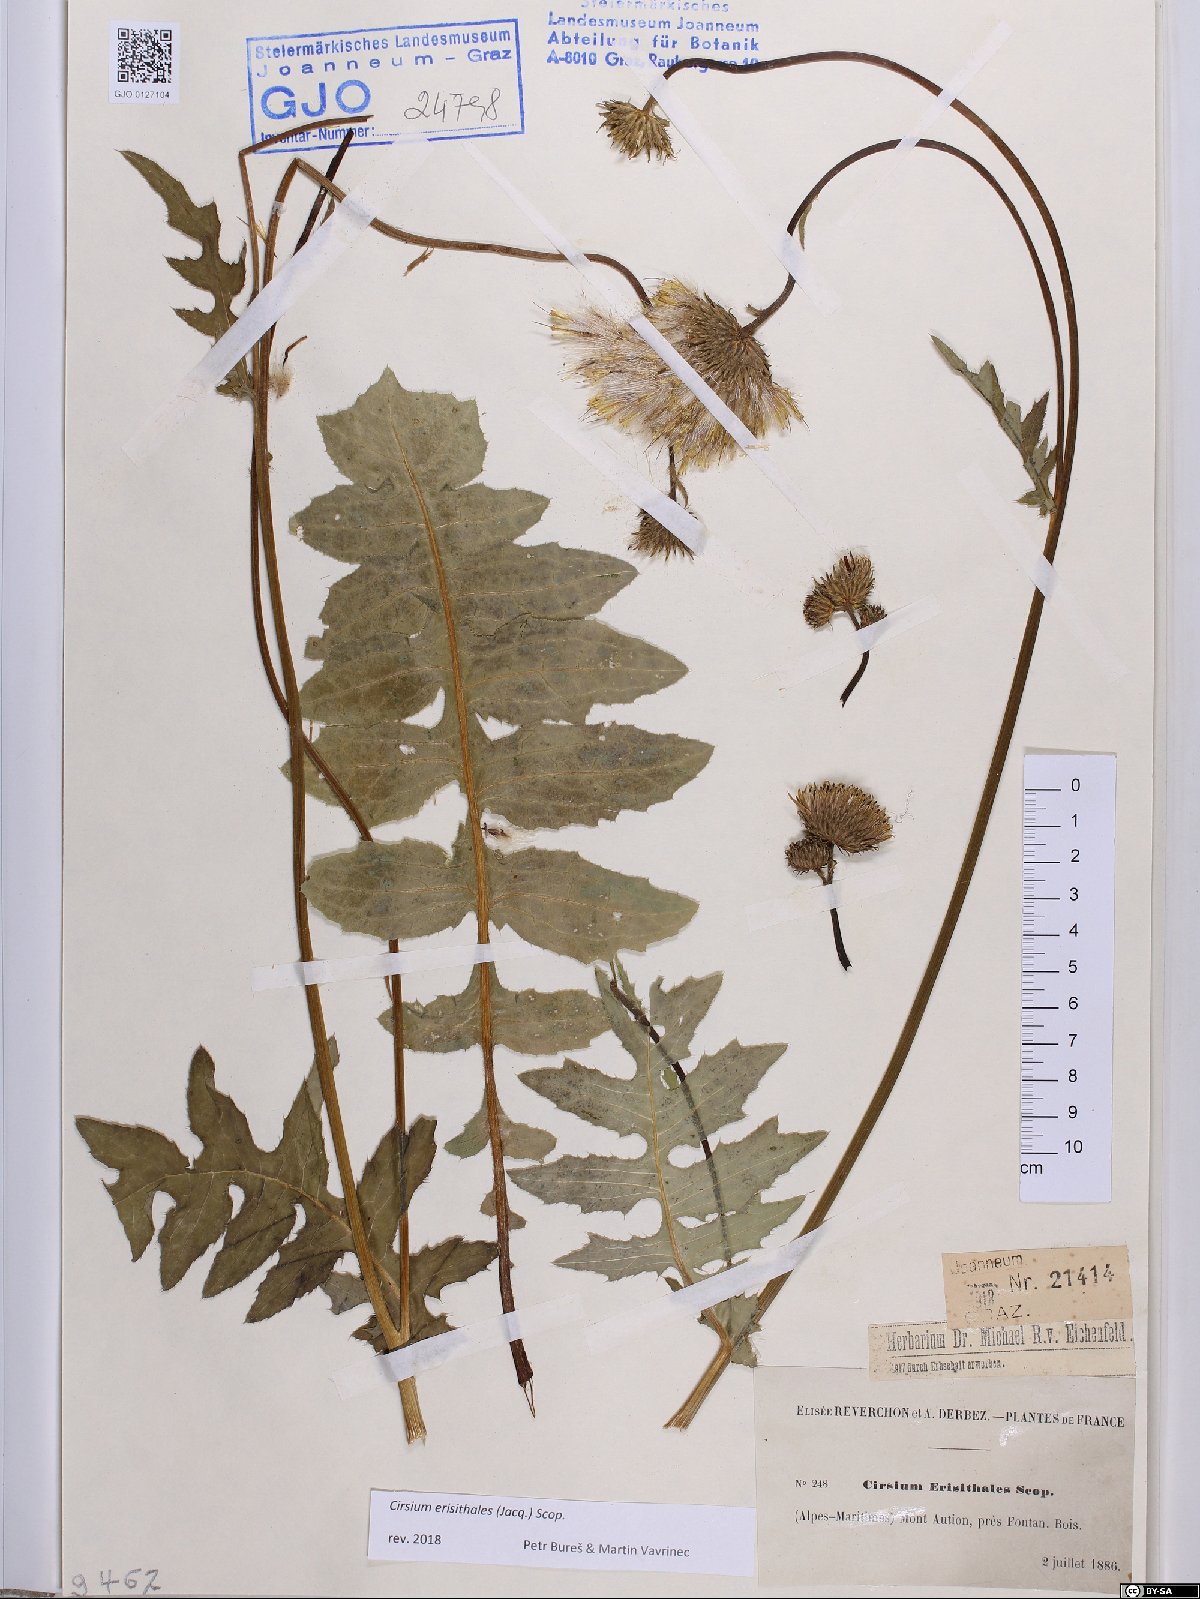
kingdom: Plantae
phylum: Tracheophyta
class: Magnoliopsida
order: Asterales
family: Asteraceae
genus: Cirsium
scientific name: Cirsium erisithales
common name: Yellow thistle
